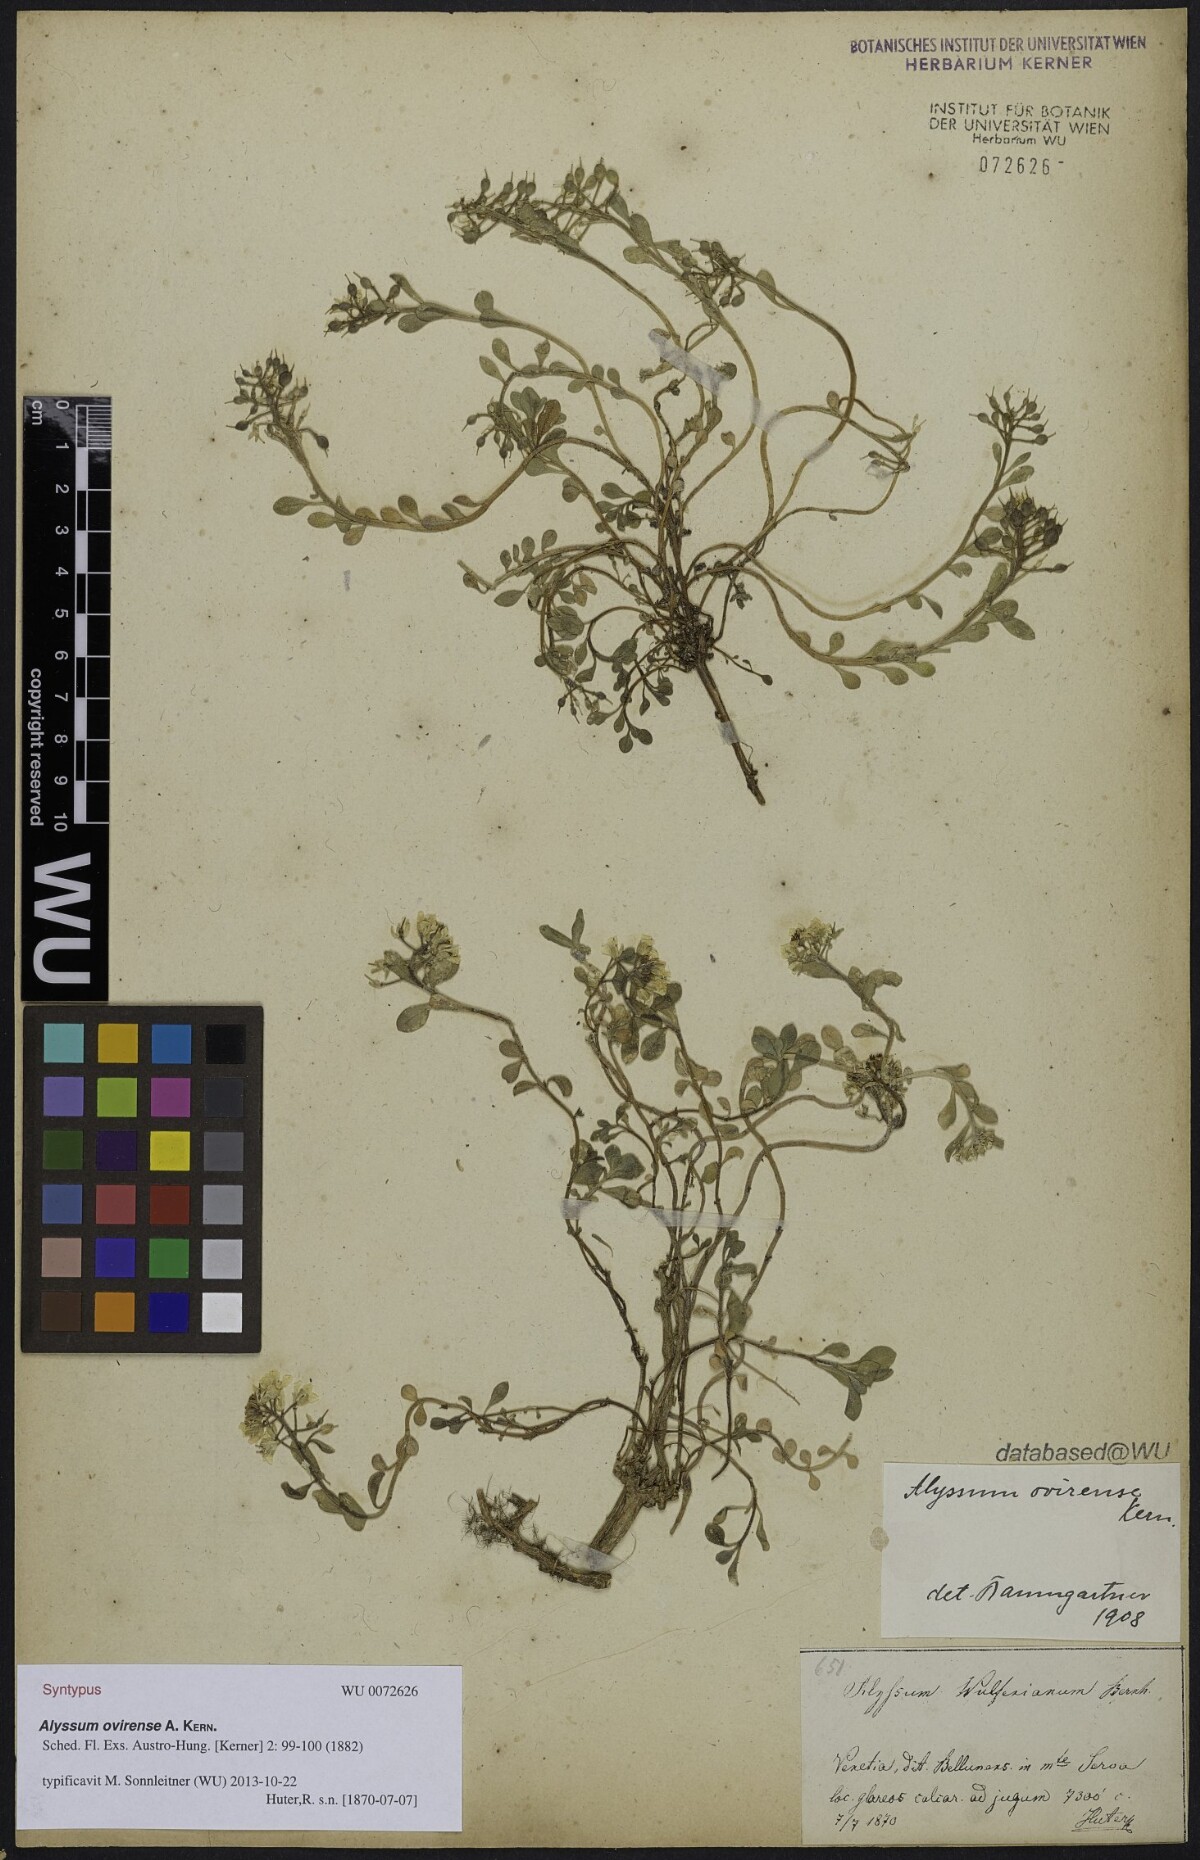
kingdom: Plantae
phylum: Tracheophyta
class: Magnoliopsida
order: Brassicales
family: Brassicaceae
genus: Alyssum
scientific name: Alyssum wulfenianum
